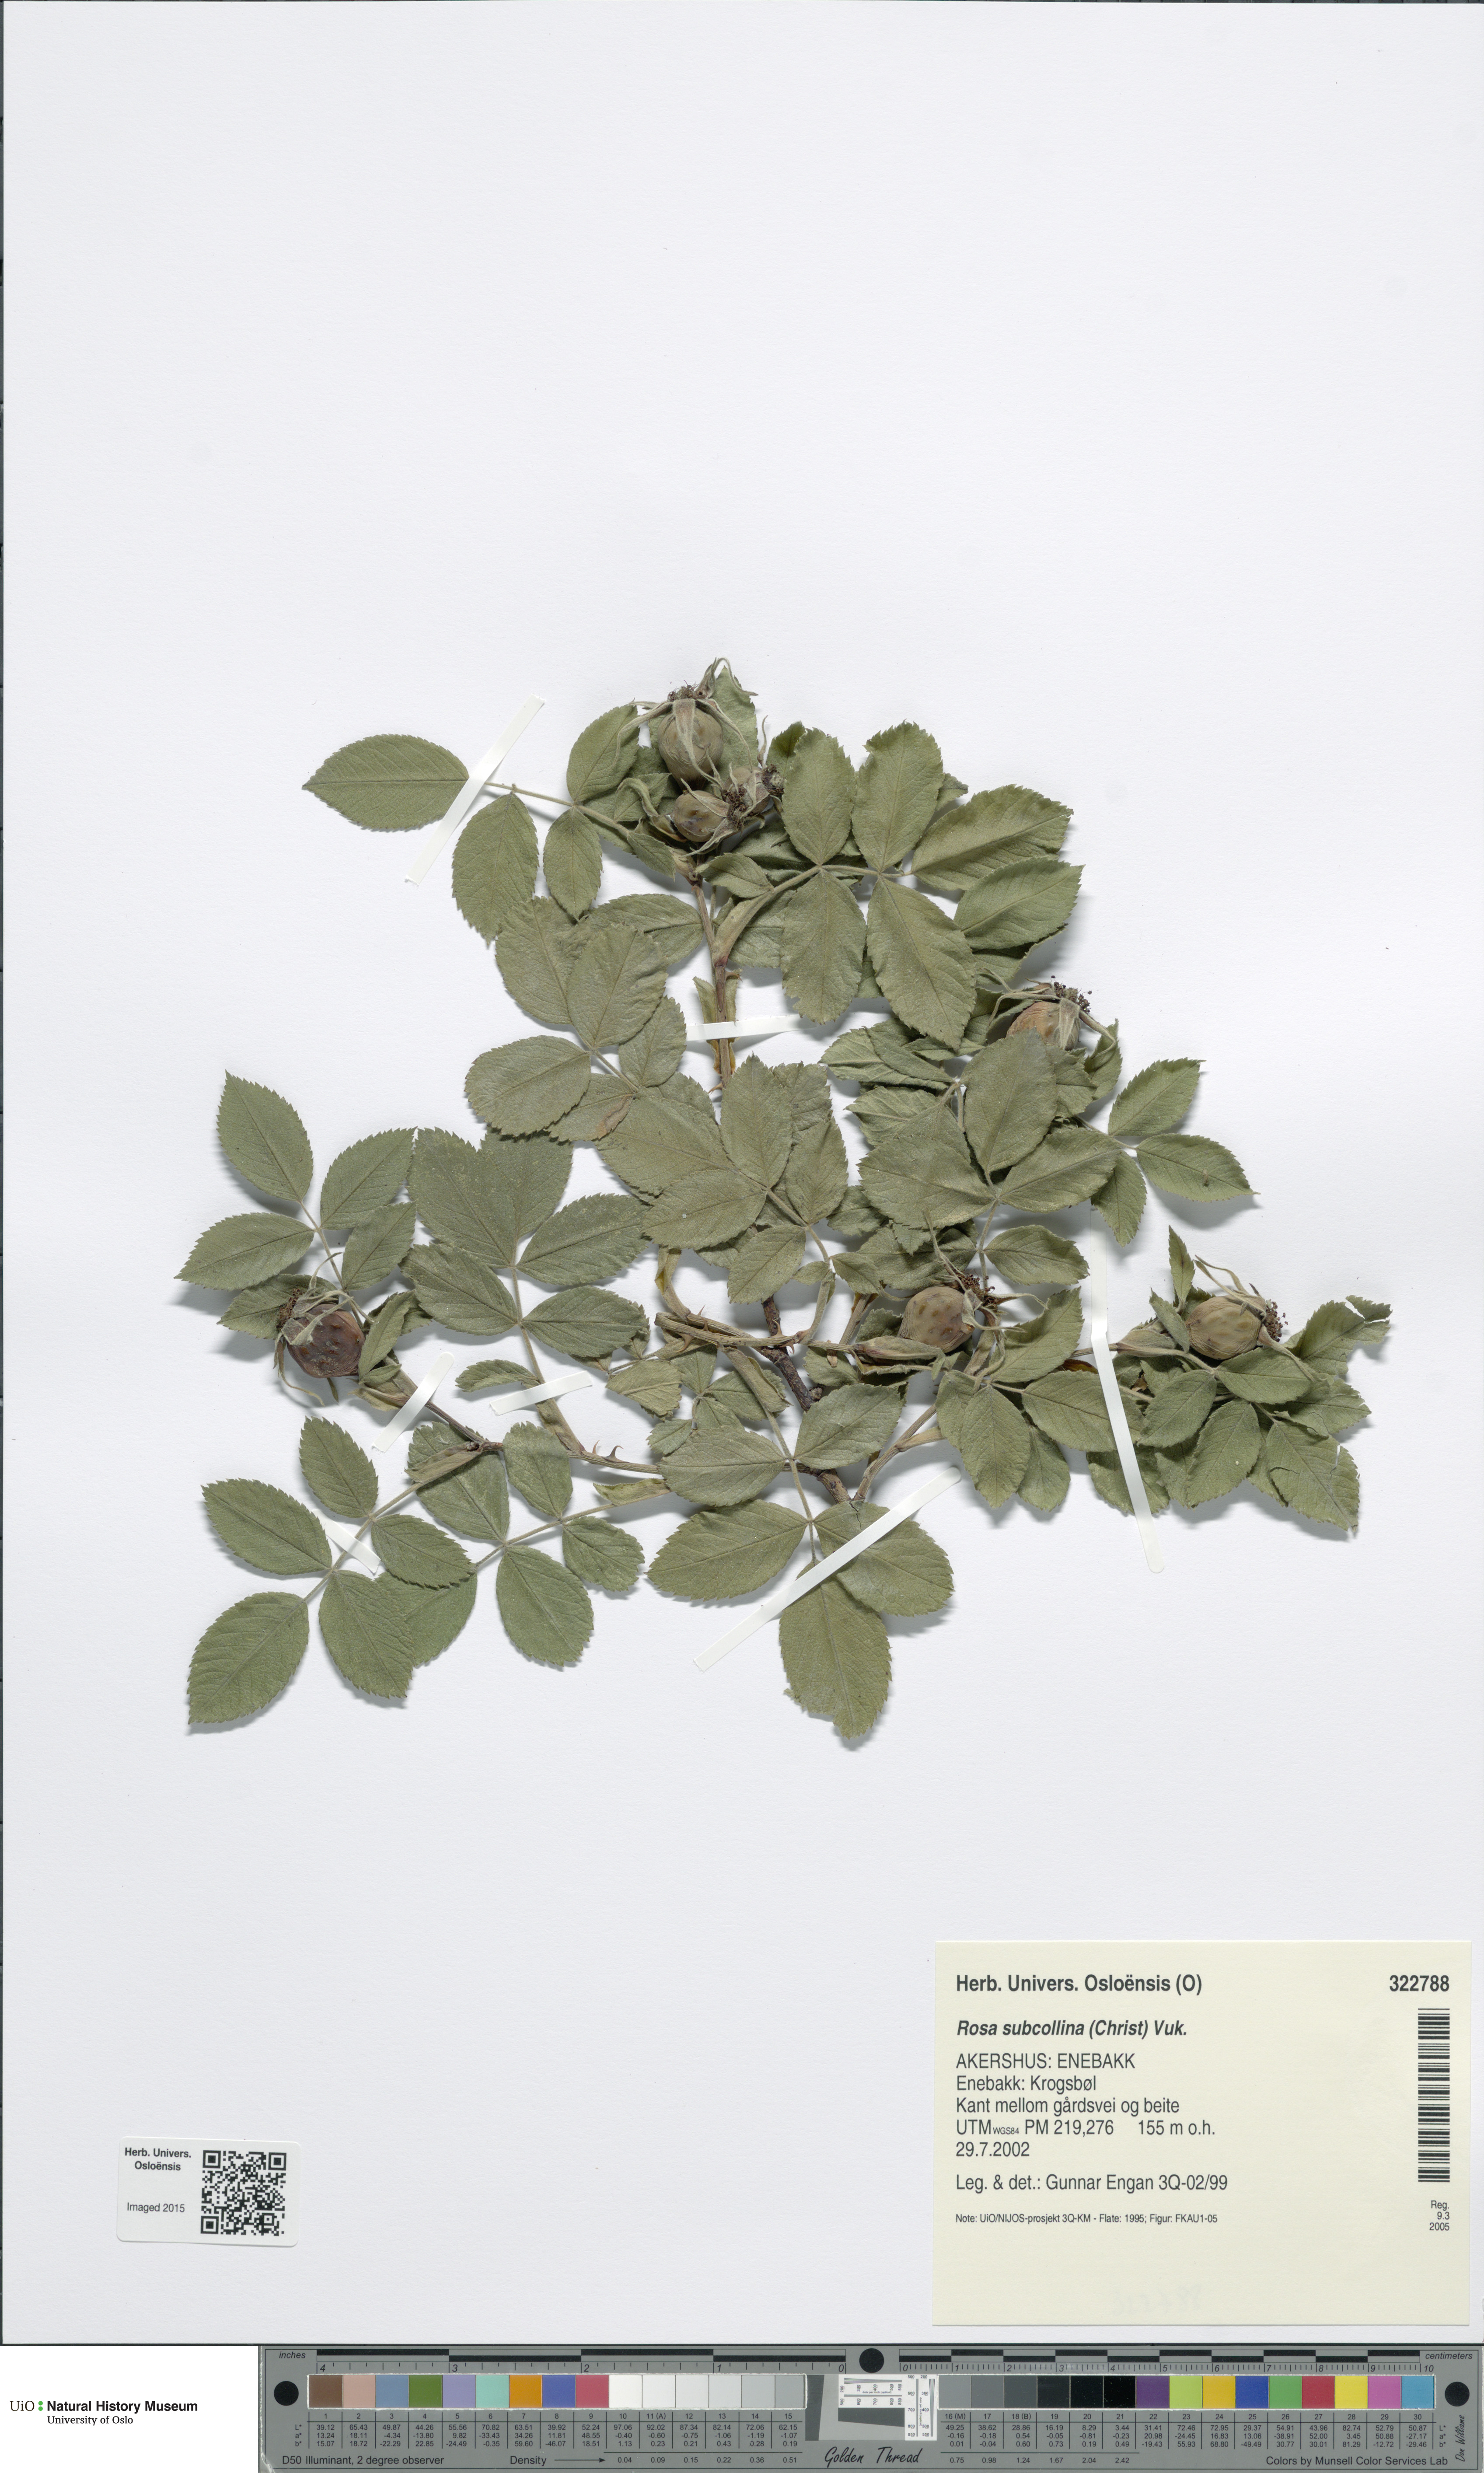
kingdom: Plantae
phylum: Tracheophyta
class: Magnoliopsida
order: Rosales
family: Rosaceae
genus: Rosa
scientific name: Rosa subcollina
